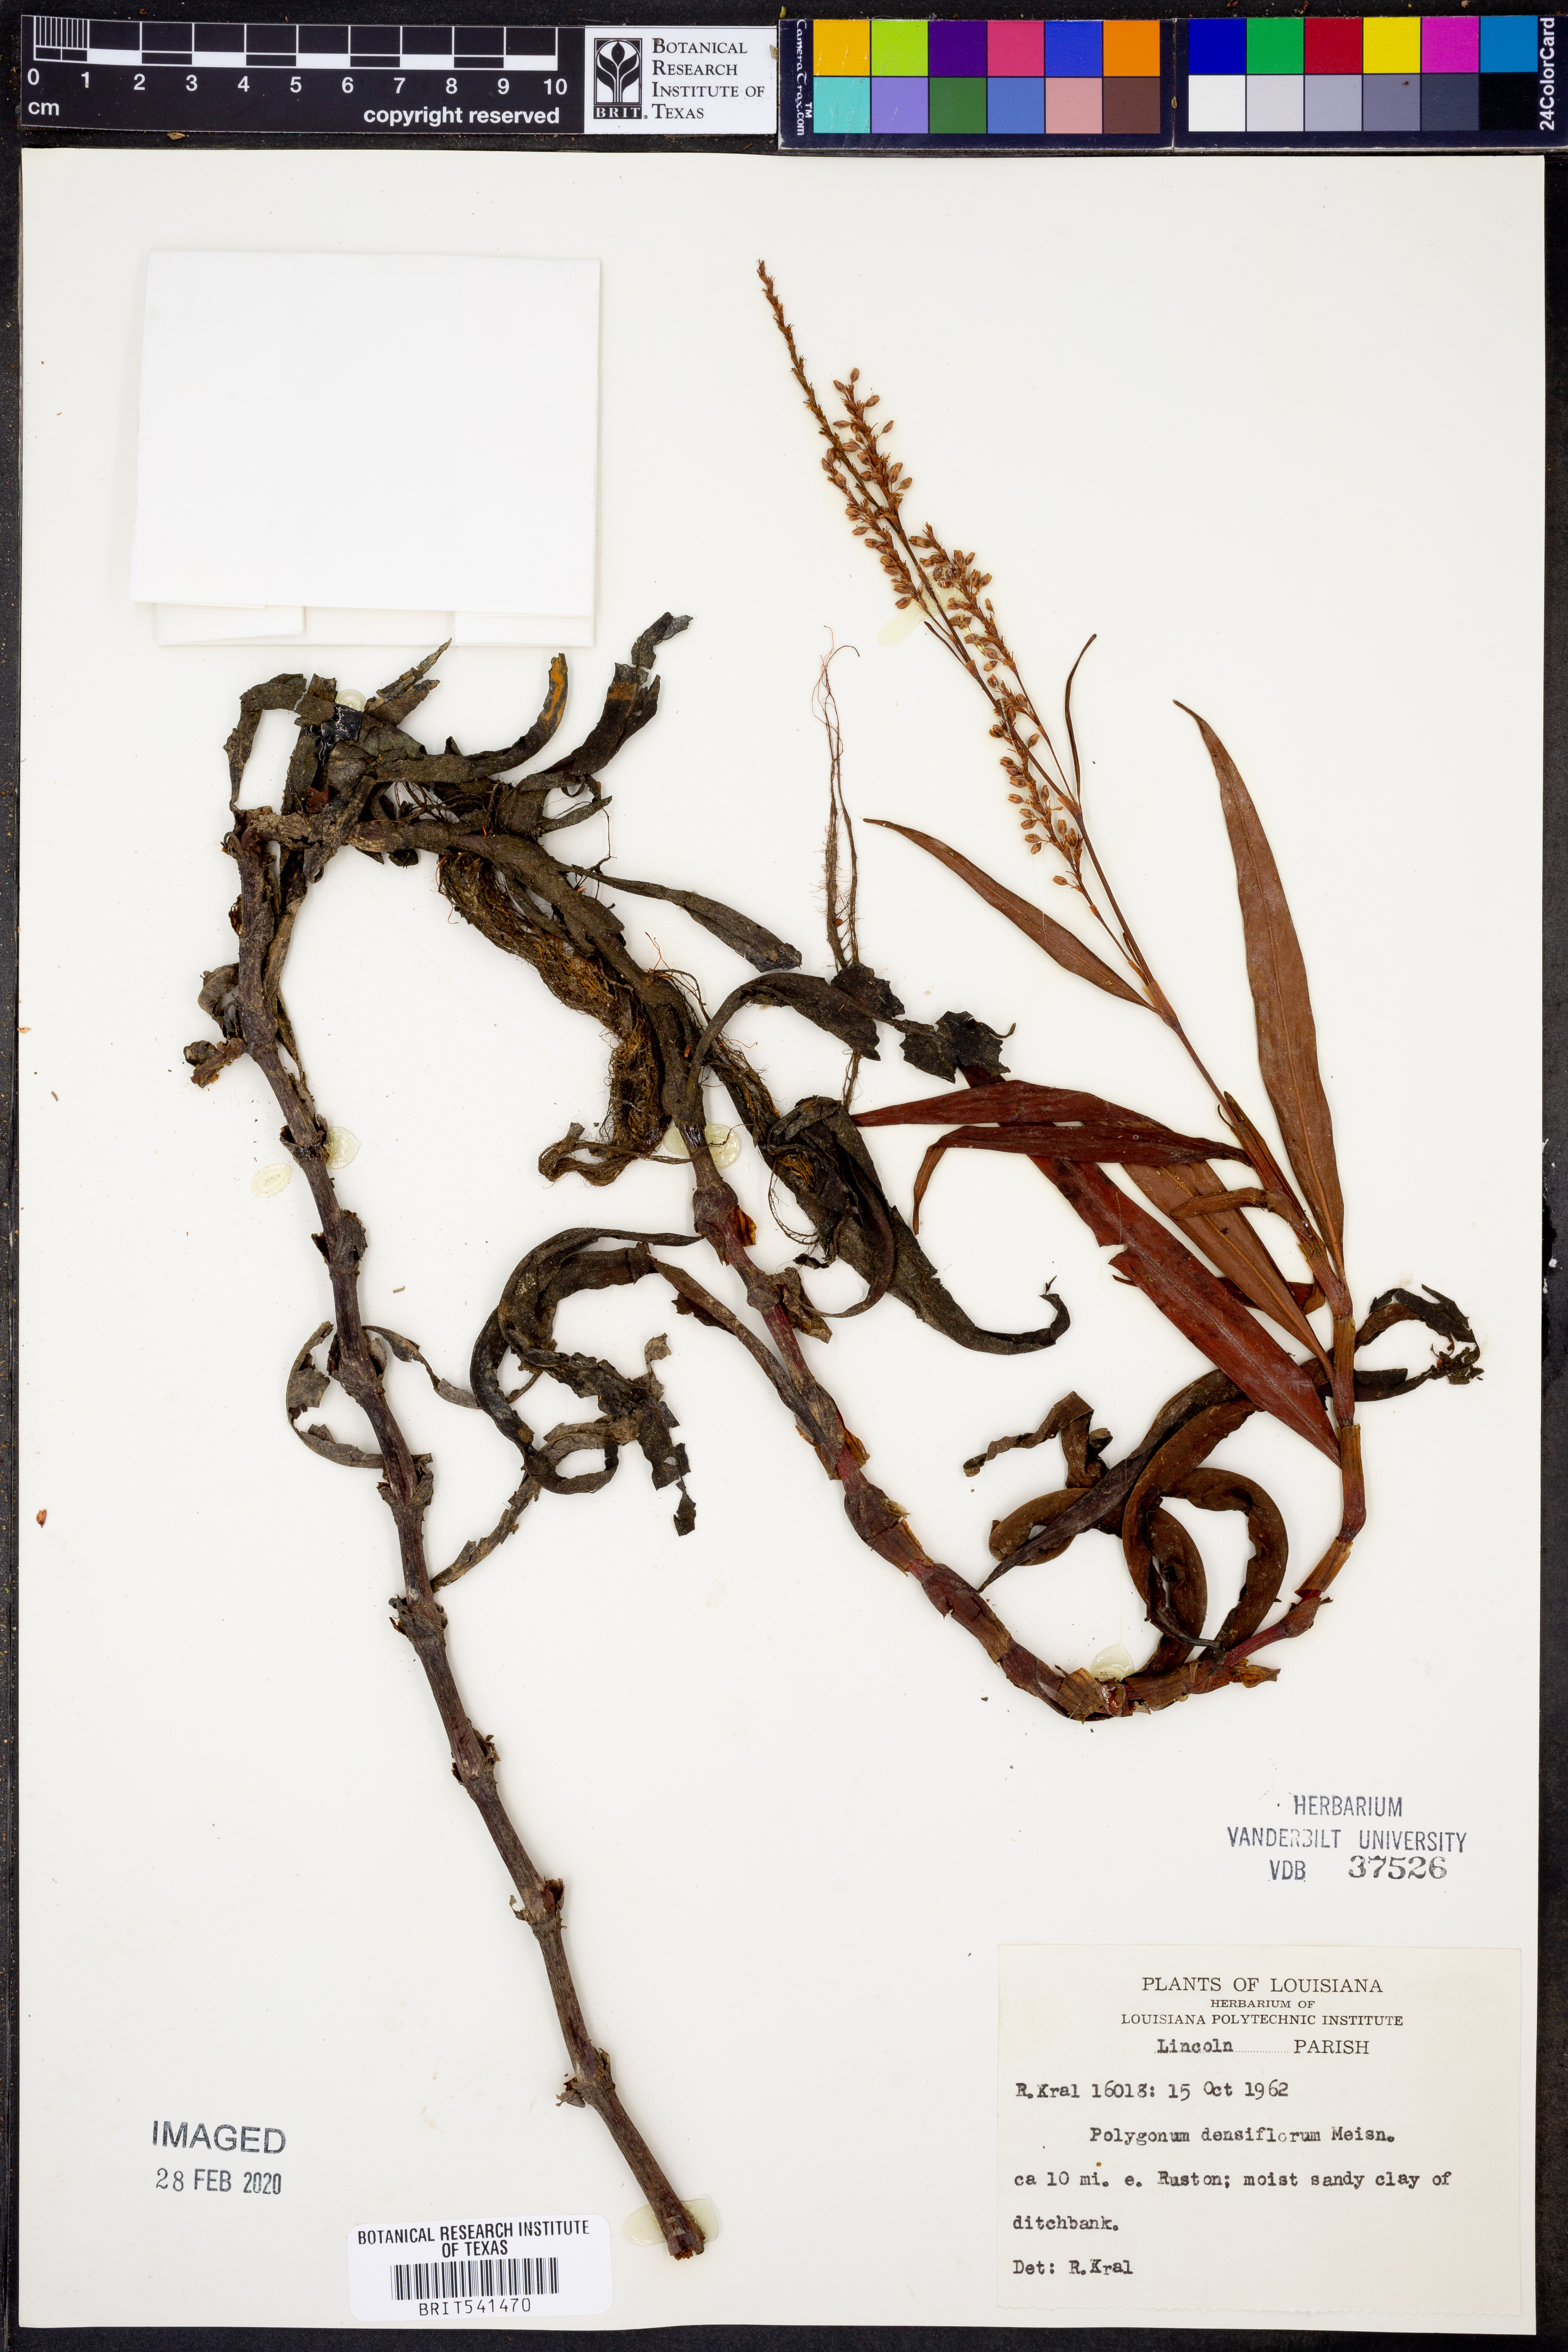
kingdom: Plantae
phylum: Tracheophyta
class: Magnoliopsida
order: Caryophyllales
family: Polygonaceae
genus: Persicaria
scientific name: Persicaria glabra
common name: Denseflower knotweed
